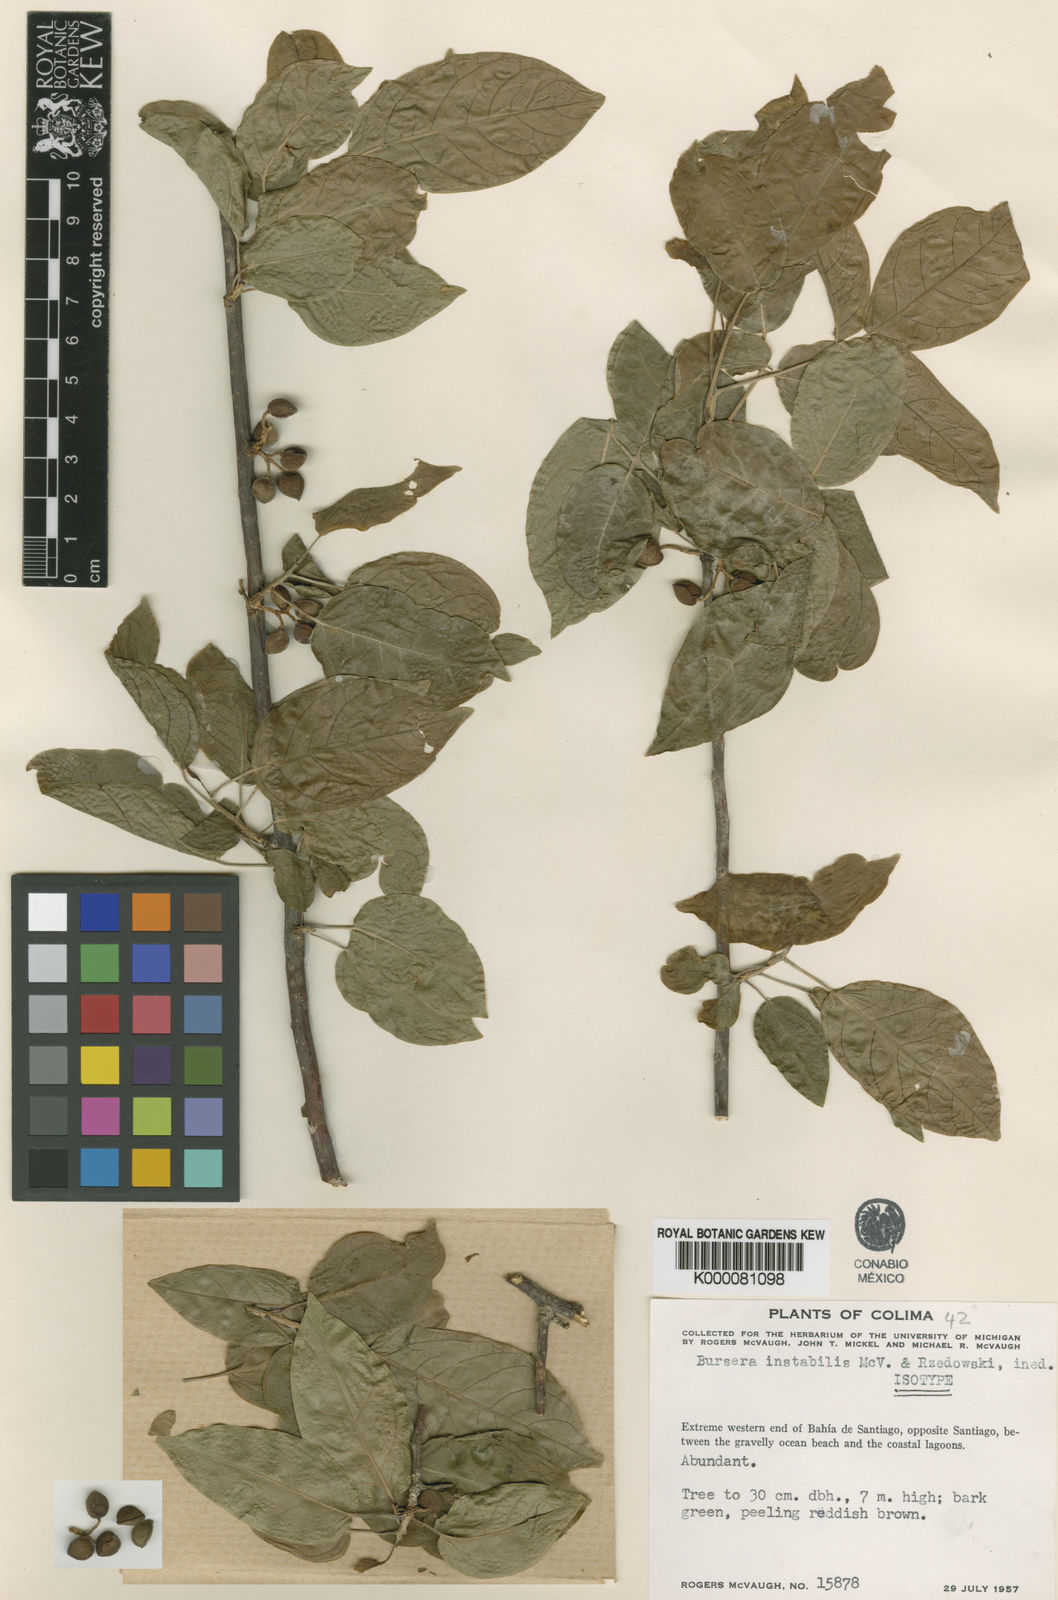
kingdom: Plantae
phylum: Tracheophyta
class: Magnoliopsida
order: Sapindales
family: Burseraceae
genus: Bursera
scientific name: Bursera instabilis
